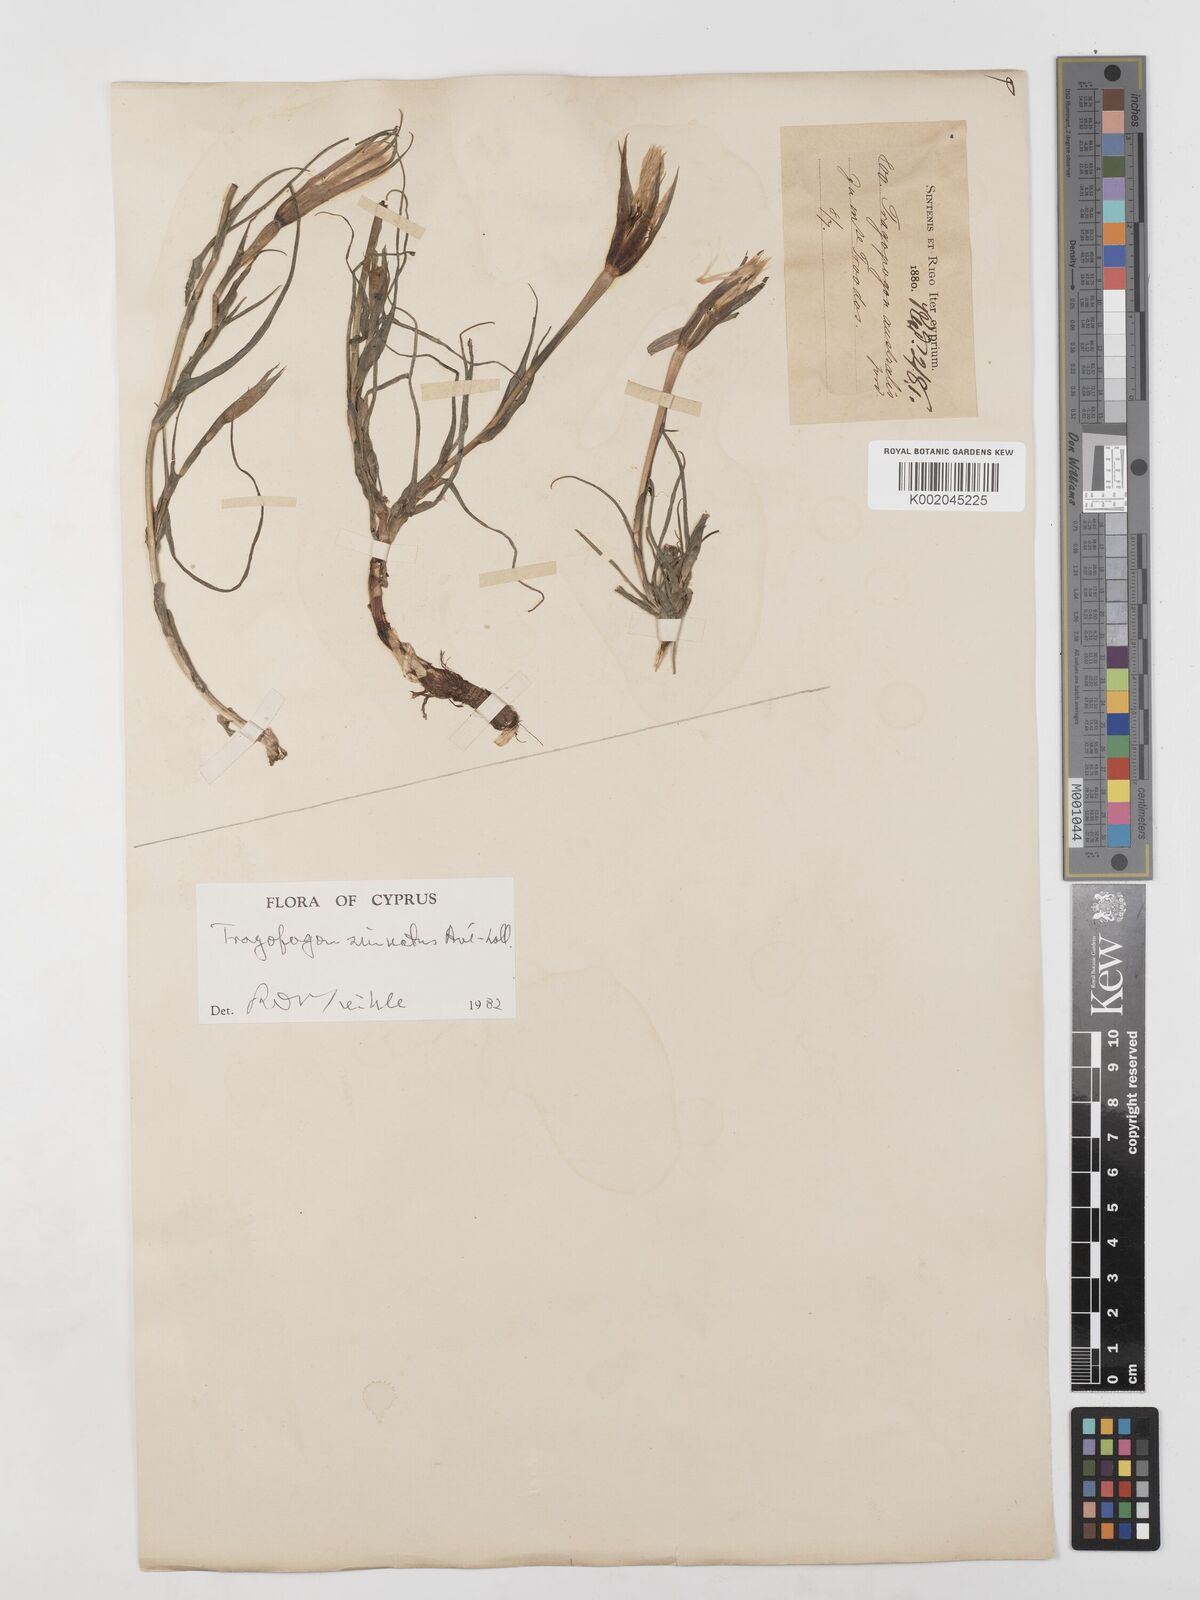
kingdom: Plantae
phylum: Tracheophyta
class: Magnoliopsida
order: Asterales
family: Asteraceae
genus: Tragopogon
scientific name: Tragopogon porrifolius
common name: Salsify
